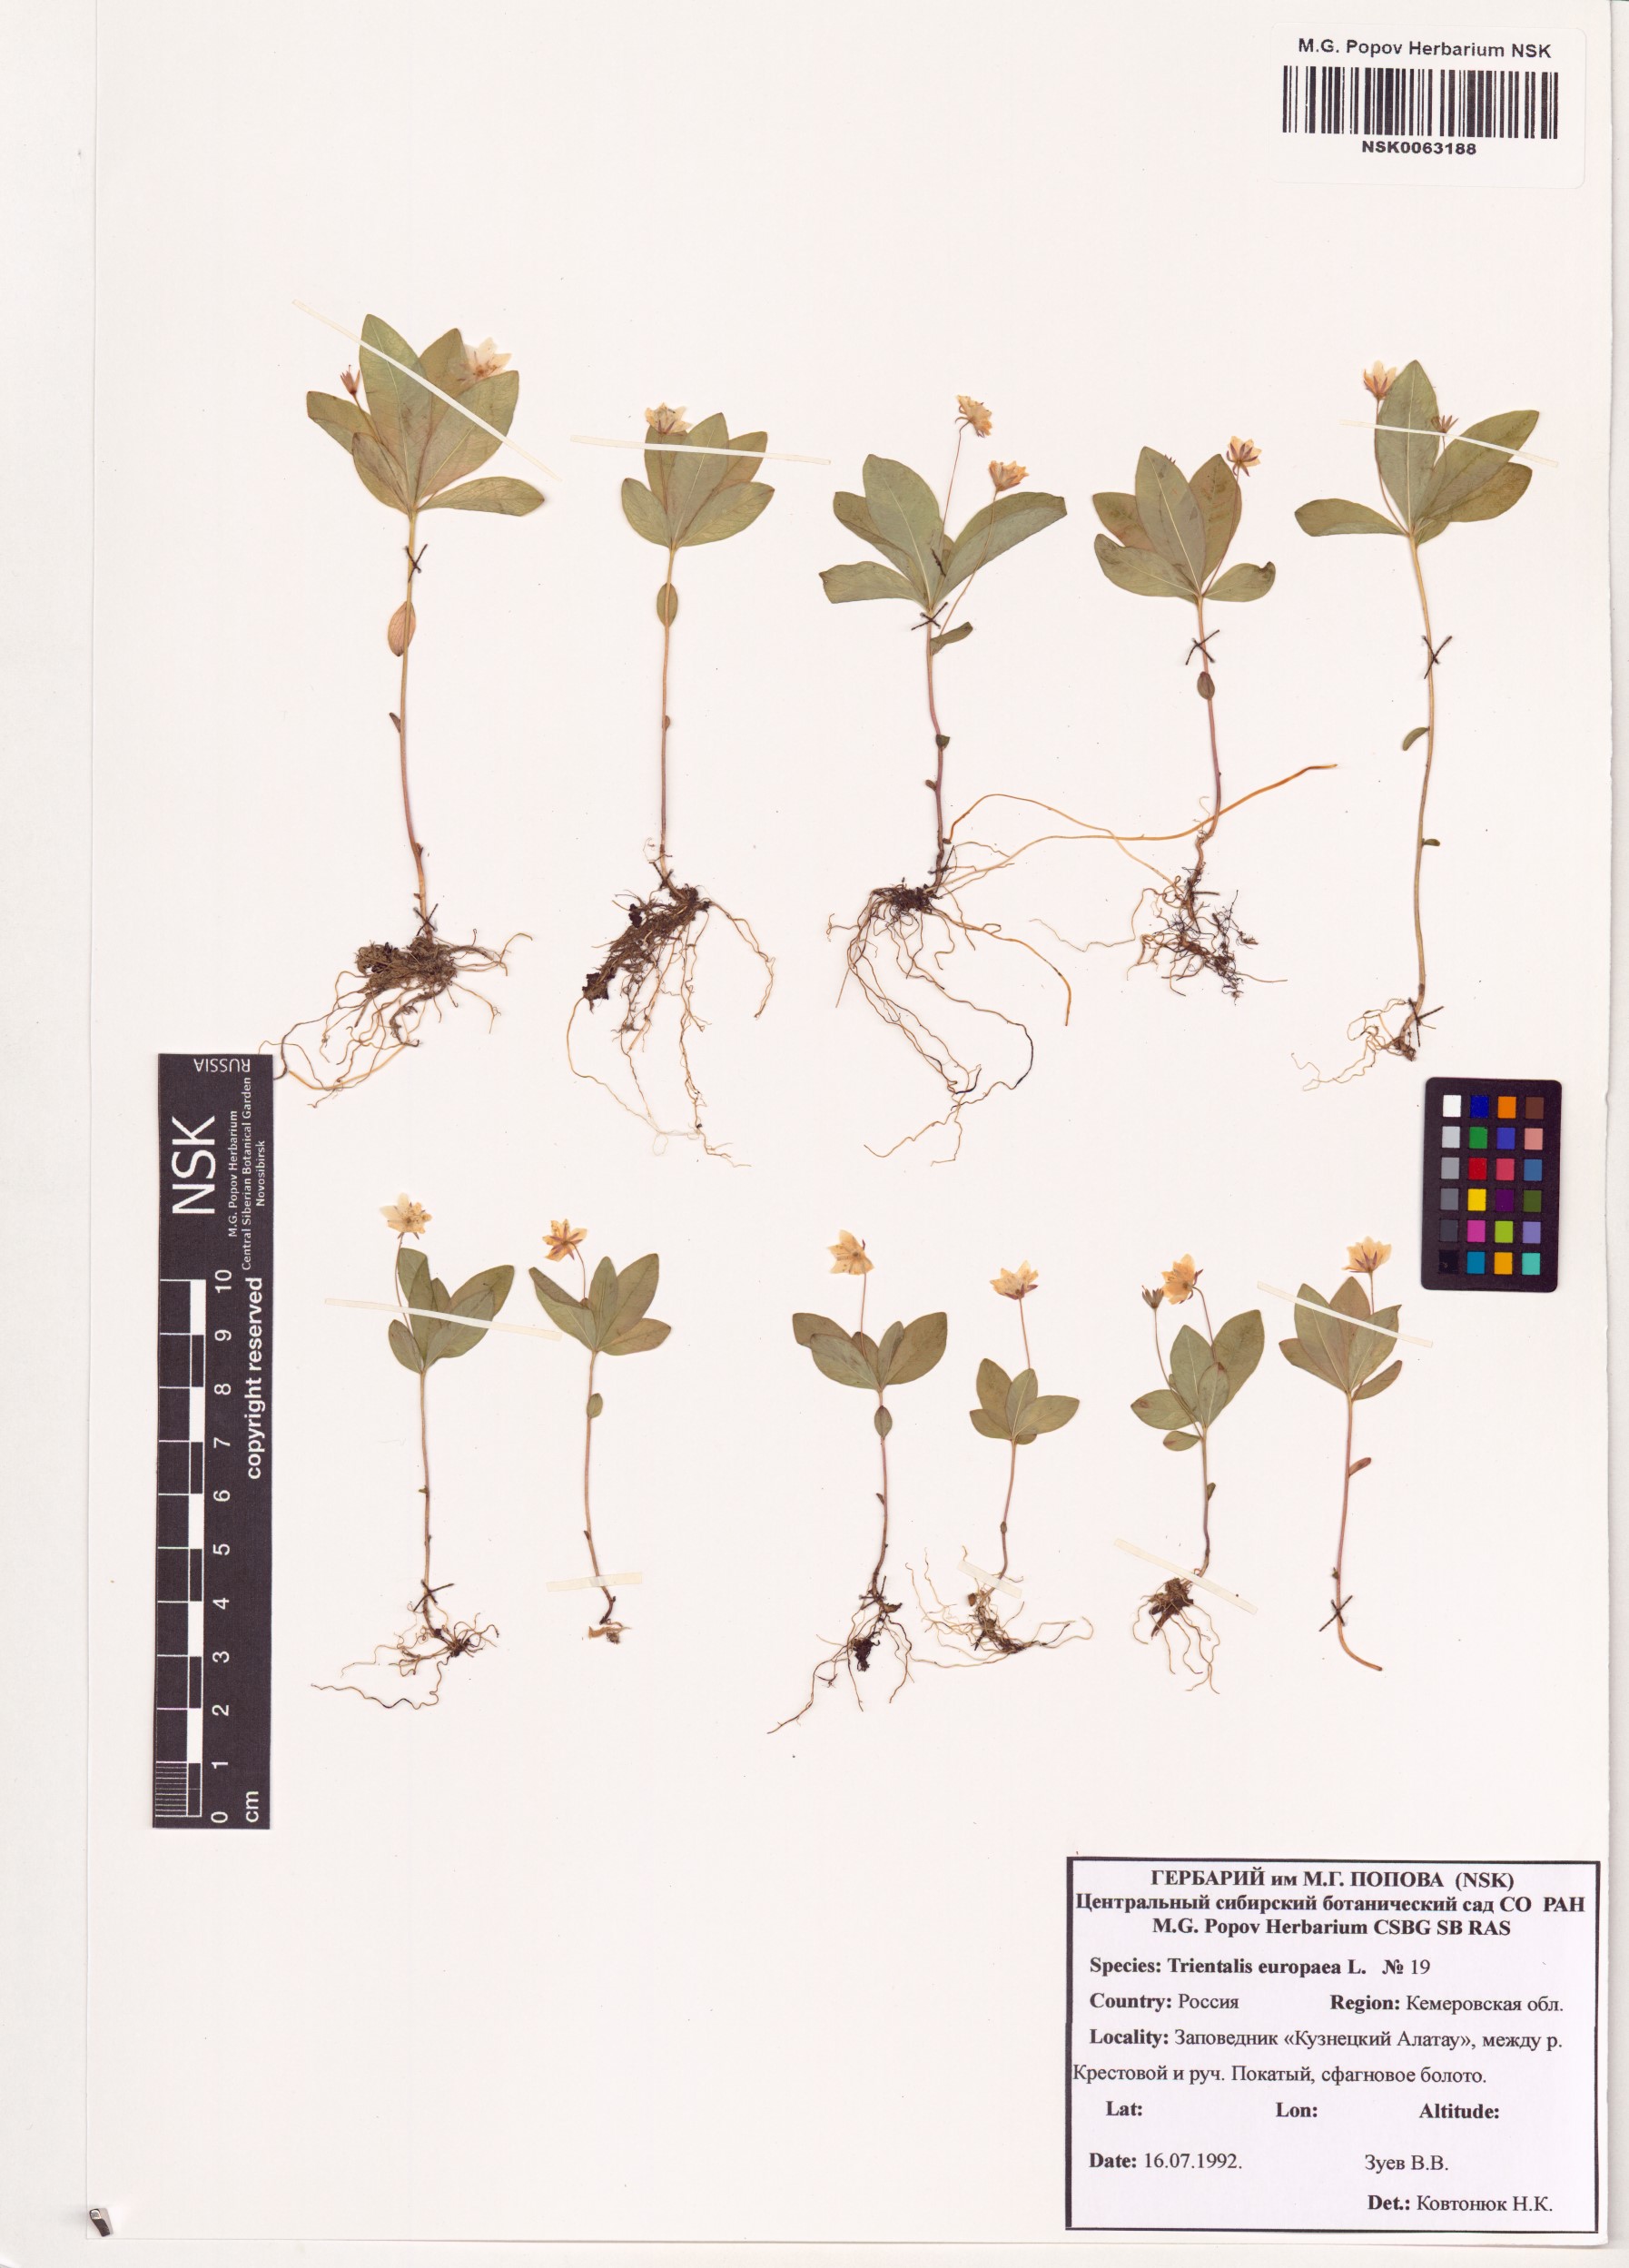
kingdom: Plantae
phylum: Tracheophyta
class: Magnoliopsida
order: Ericales
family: Primulaceae
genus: Lysimachia
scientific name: Lysimachia europaea
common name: Arctic starflower
